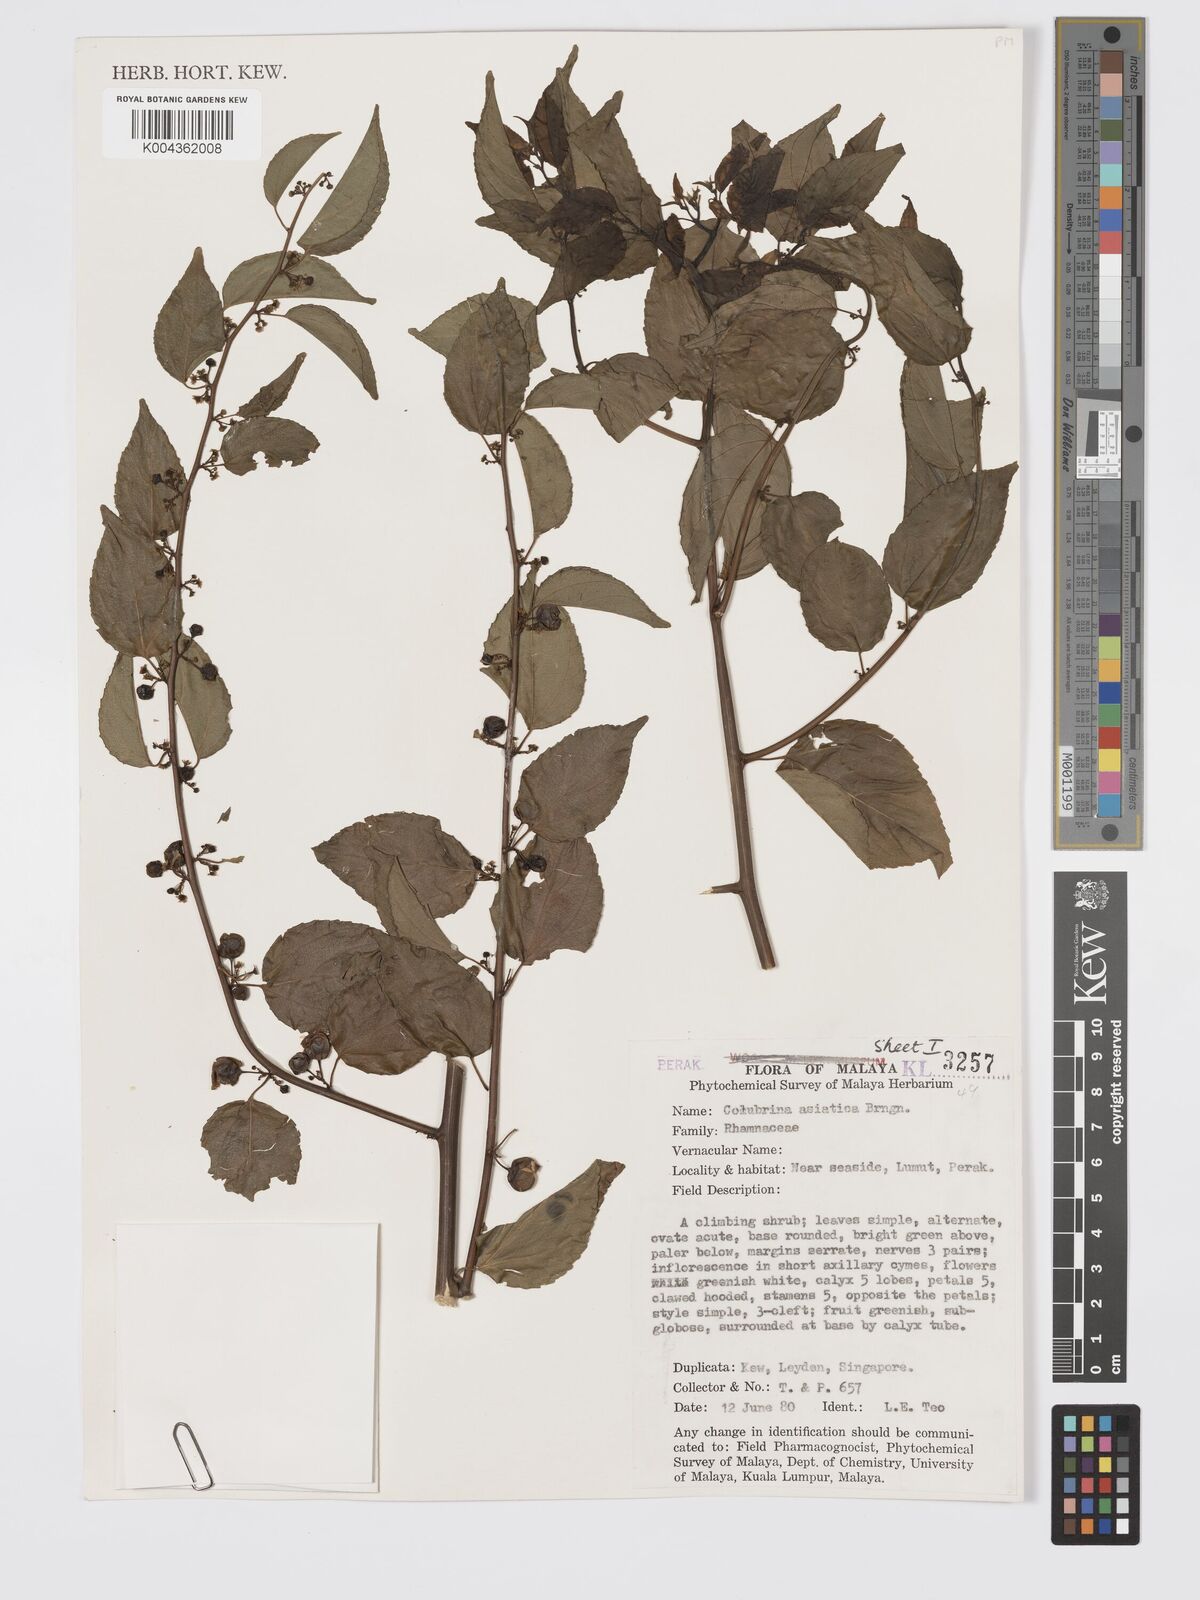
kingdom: Plantae
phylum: Tracheophyta
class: Magnoliopsida
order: Rosales
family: Rhamnaceae
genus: Colubrina
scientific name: Colubrina asiatica
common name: Asian nakedwood
